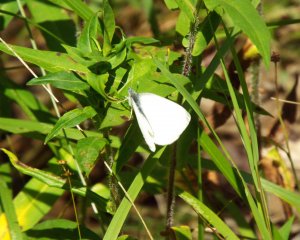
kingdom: Animalia
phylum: Arthropoda
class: Insecta
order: Lepidoptera
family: Pieridae
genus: Pieris
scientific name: Pieris oleracea
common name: Mustard White
